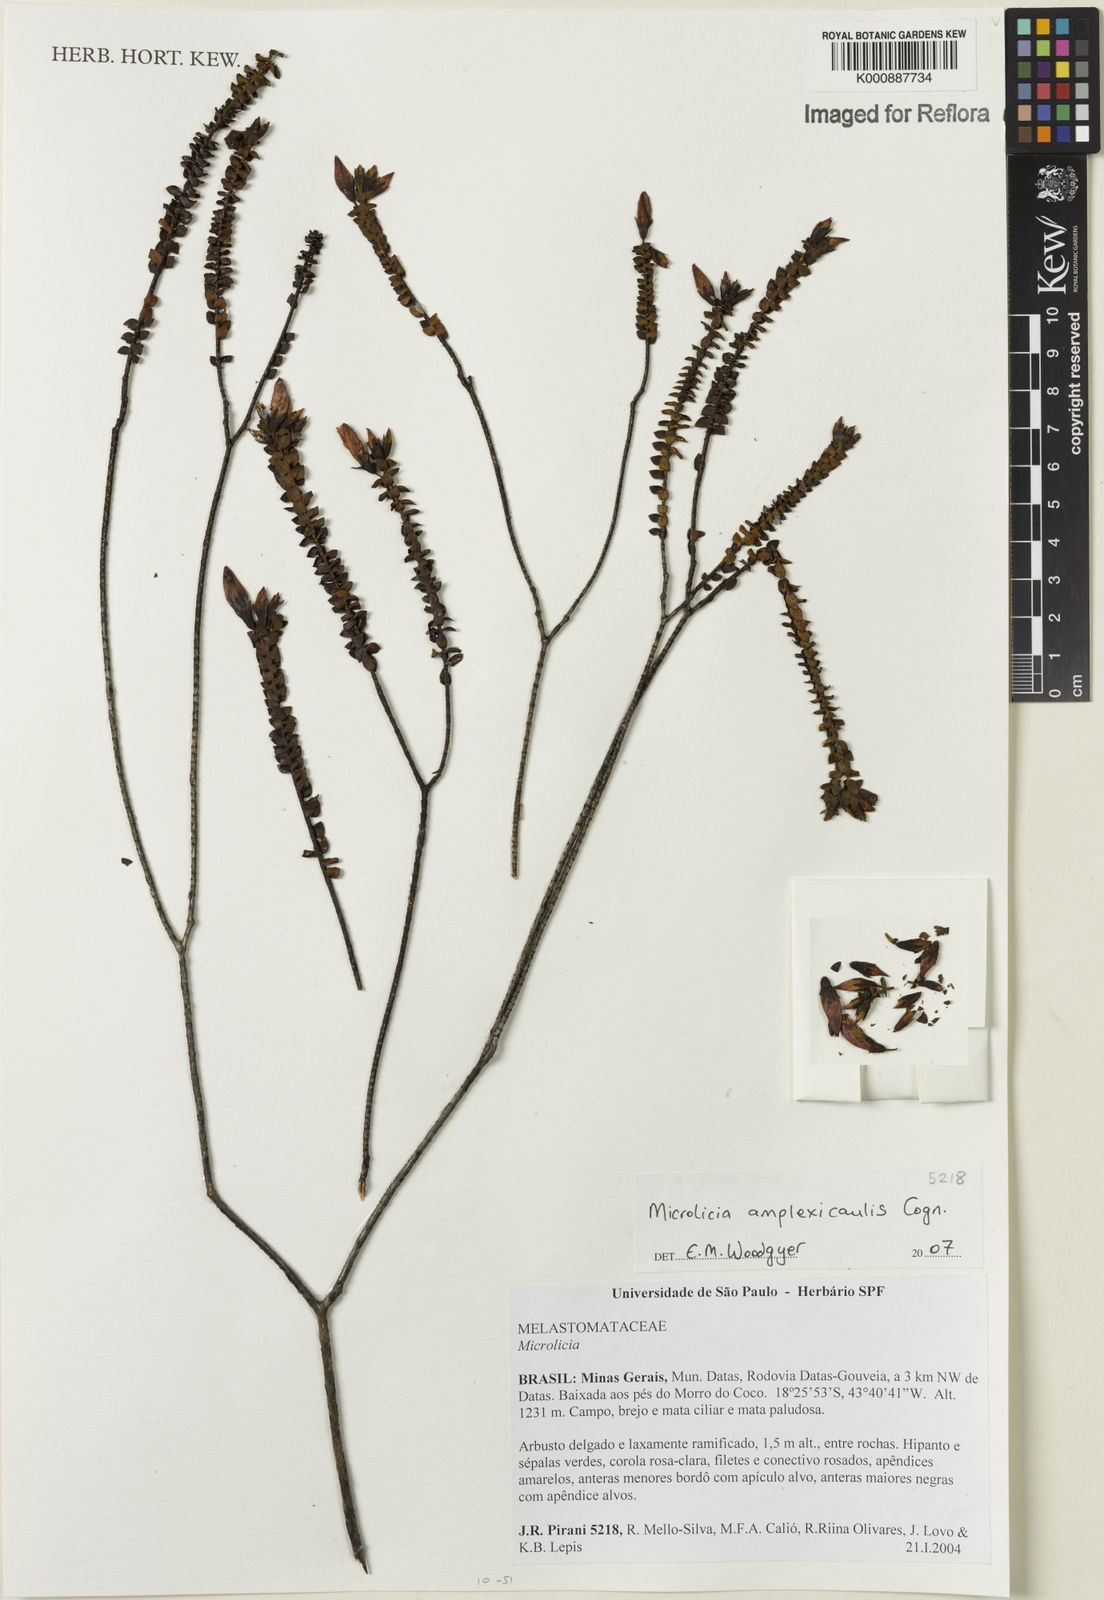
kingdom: Plantae
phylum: Tracheophyta
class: Magnoliopsida
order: Myrtales
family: Melastomataceae
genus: Microlicia
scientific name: Microlicia amplexicaulis
